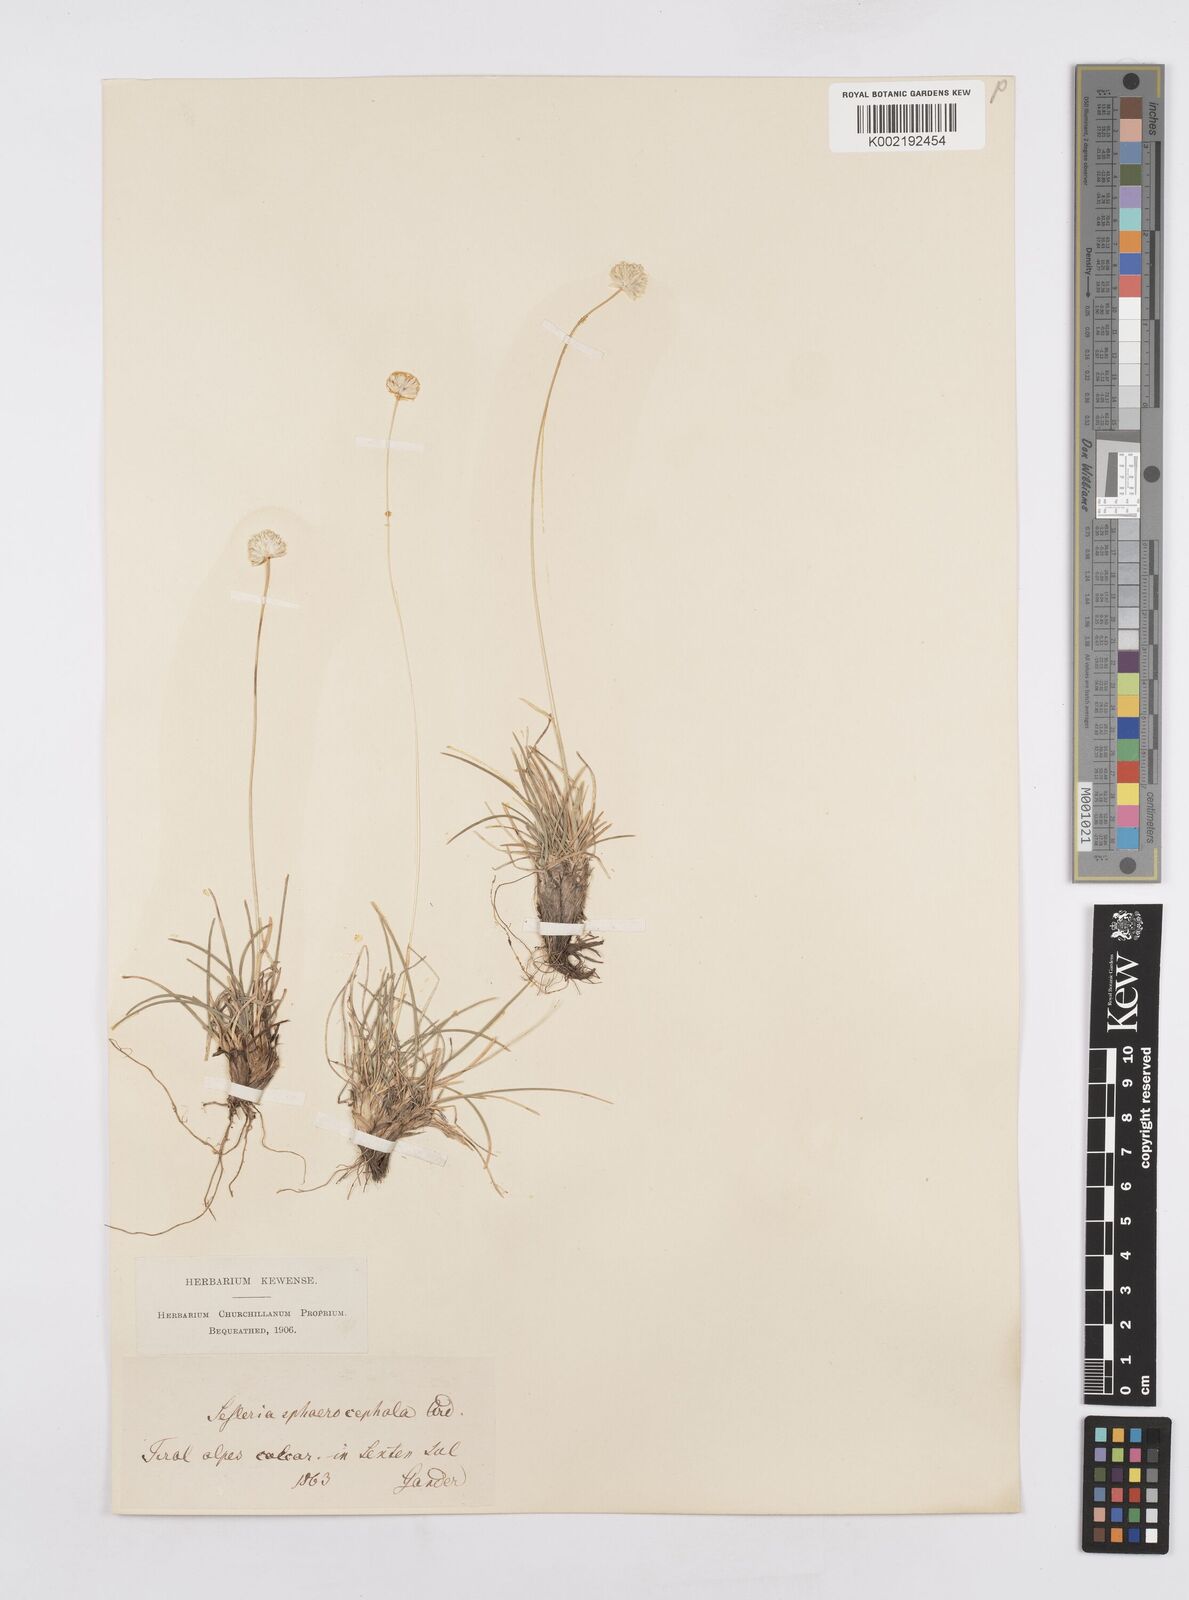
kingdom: Plantae
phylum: Tracheophyta
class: Liliopsida
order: Poales
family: Poaceae
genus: Sesleriella
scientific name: Sesleriella sphaerocephala
